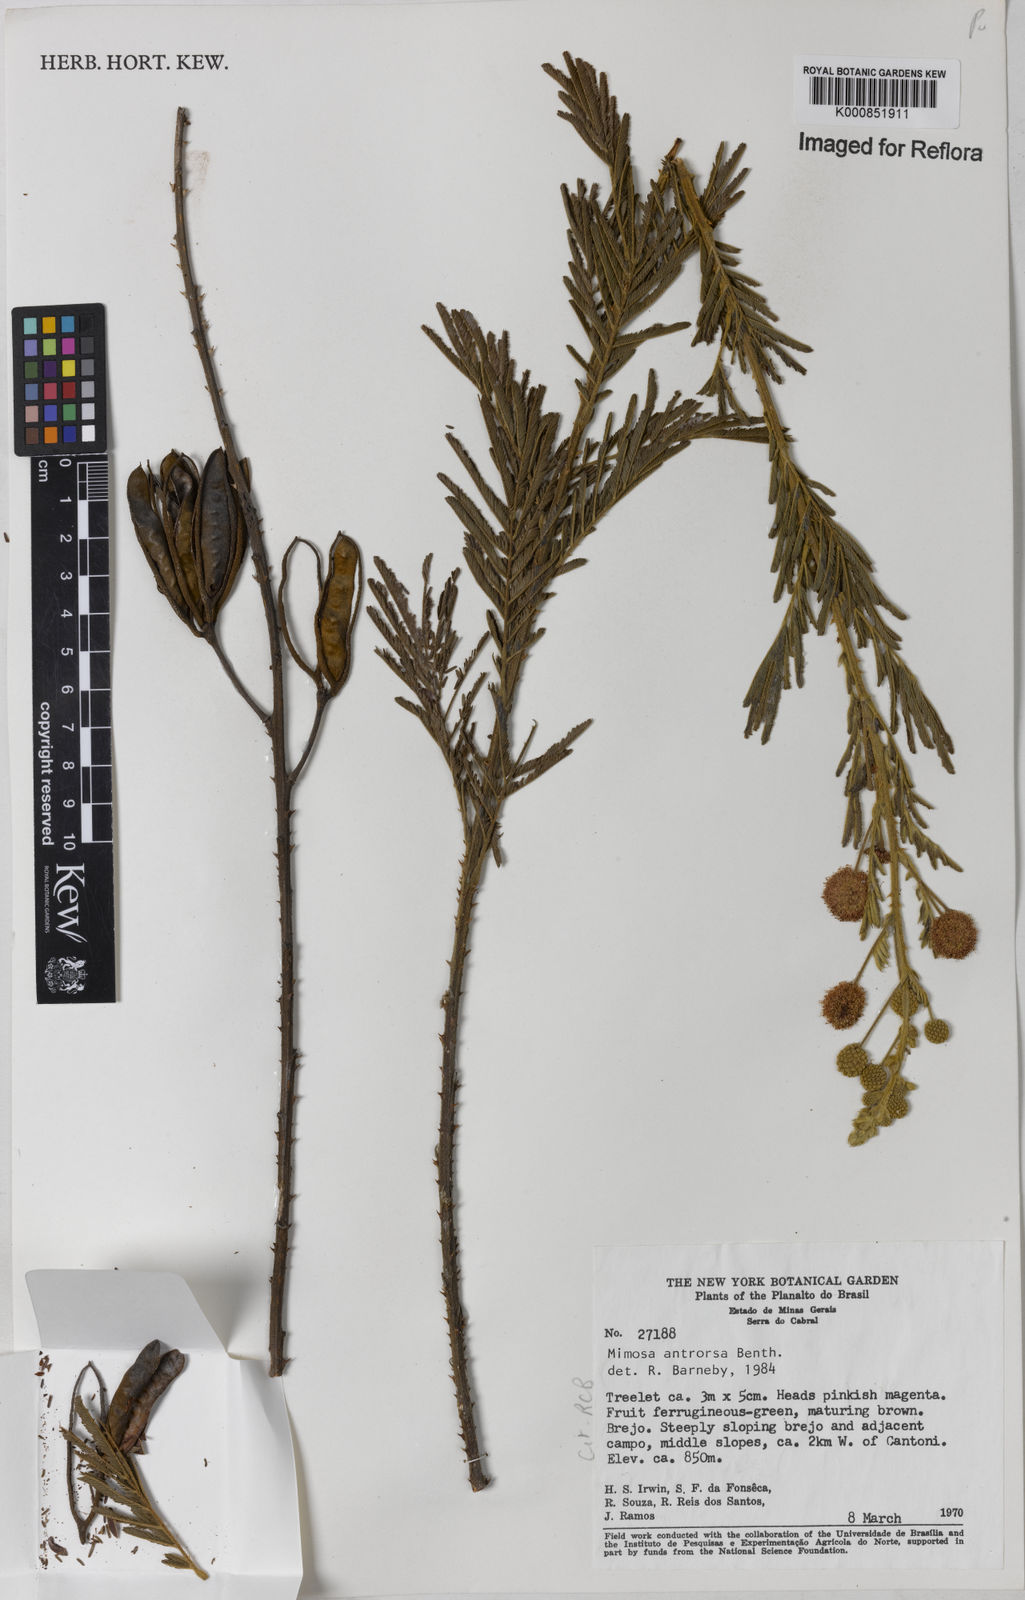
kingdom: Plantae
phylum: Tracheophyta
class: Magnoliopsida
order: Fabales
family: Fabaceae
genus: Mimosa
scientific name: Mimosa antrorsa
